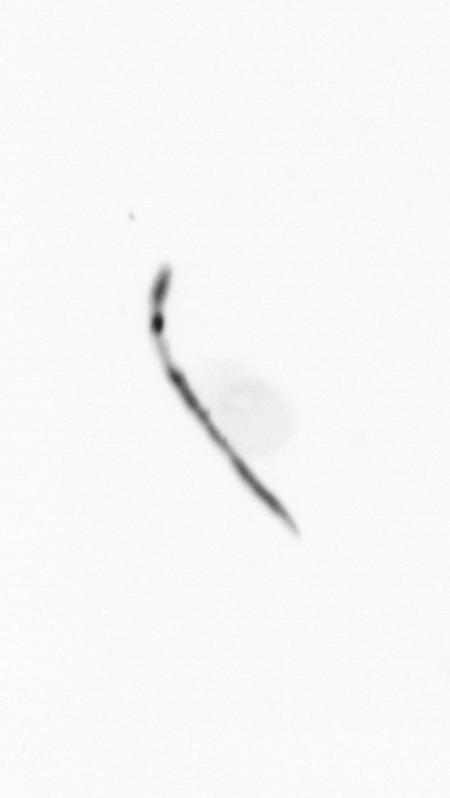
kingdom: Chromista
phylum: Ochrophyta
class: Bacillariophyceae
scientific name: Bacillariophyceae
